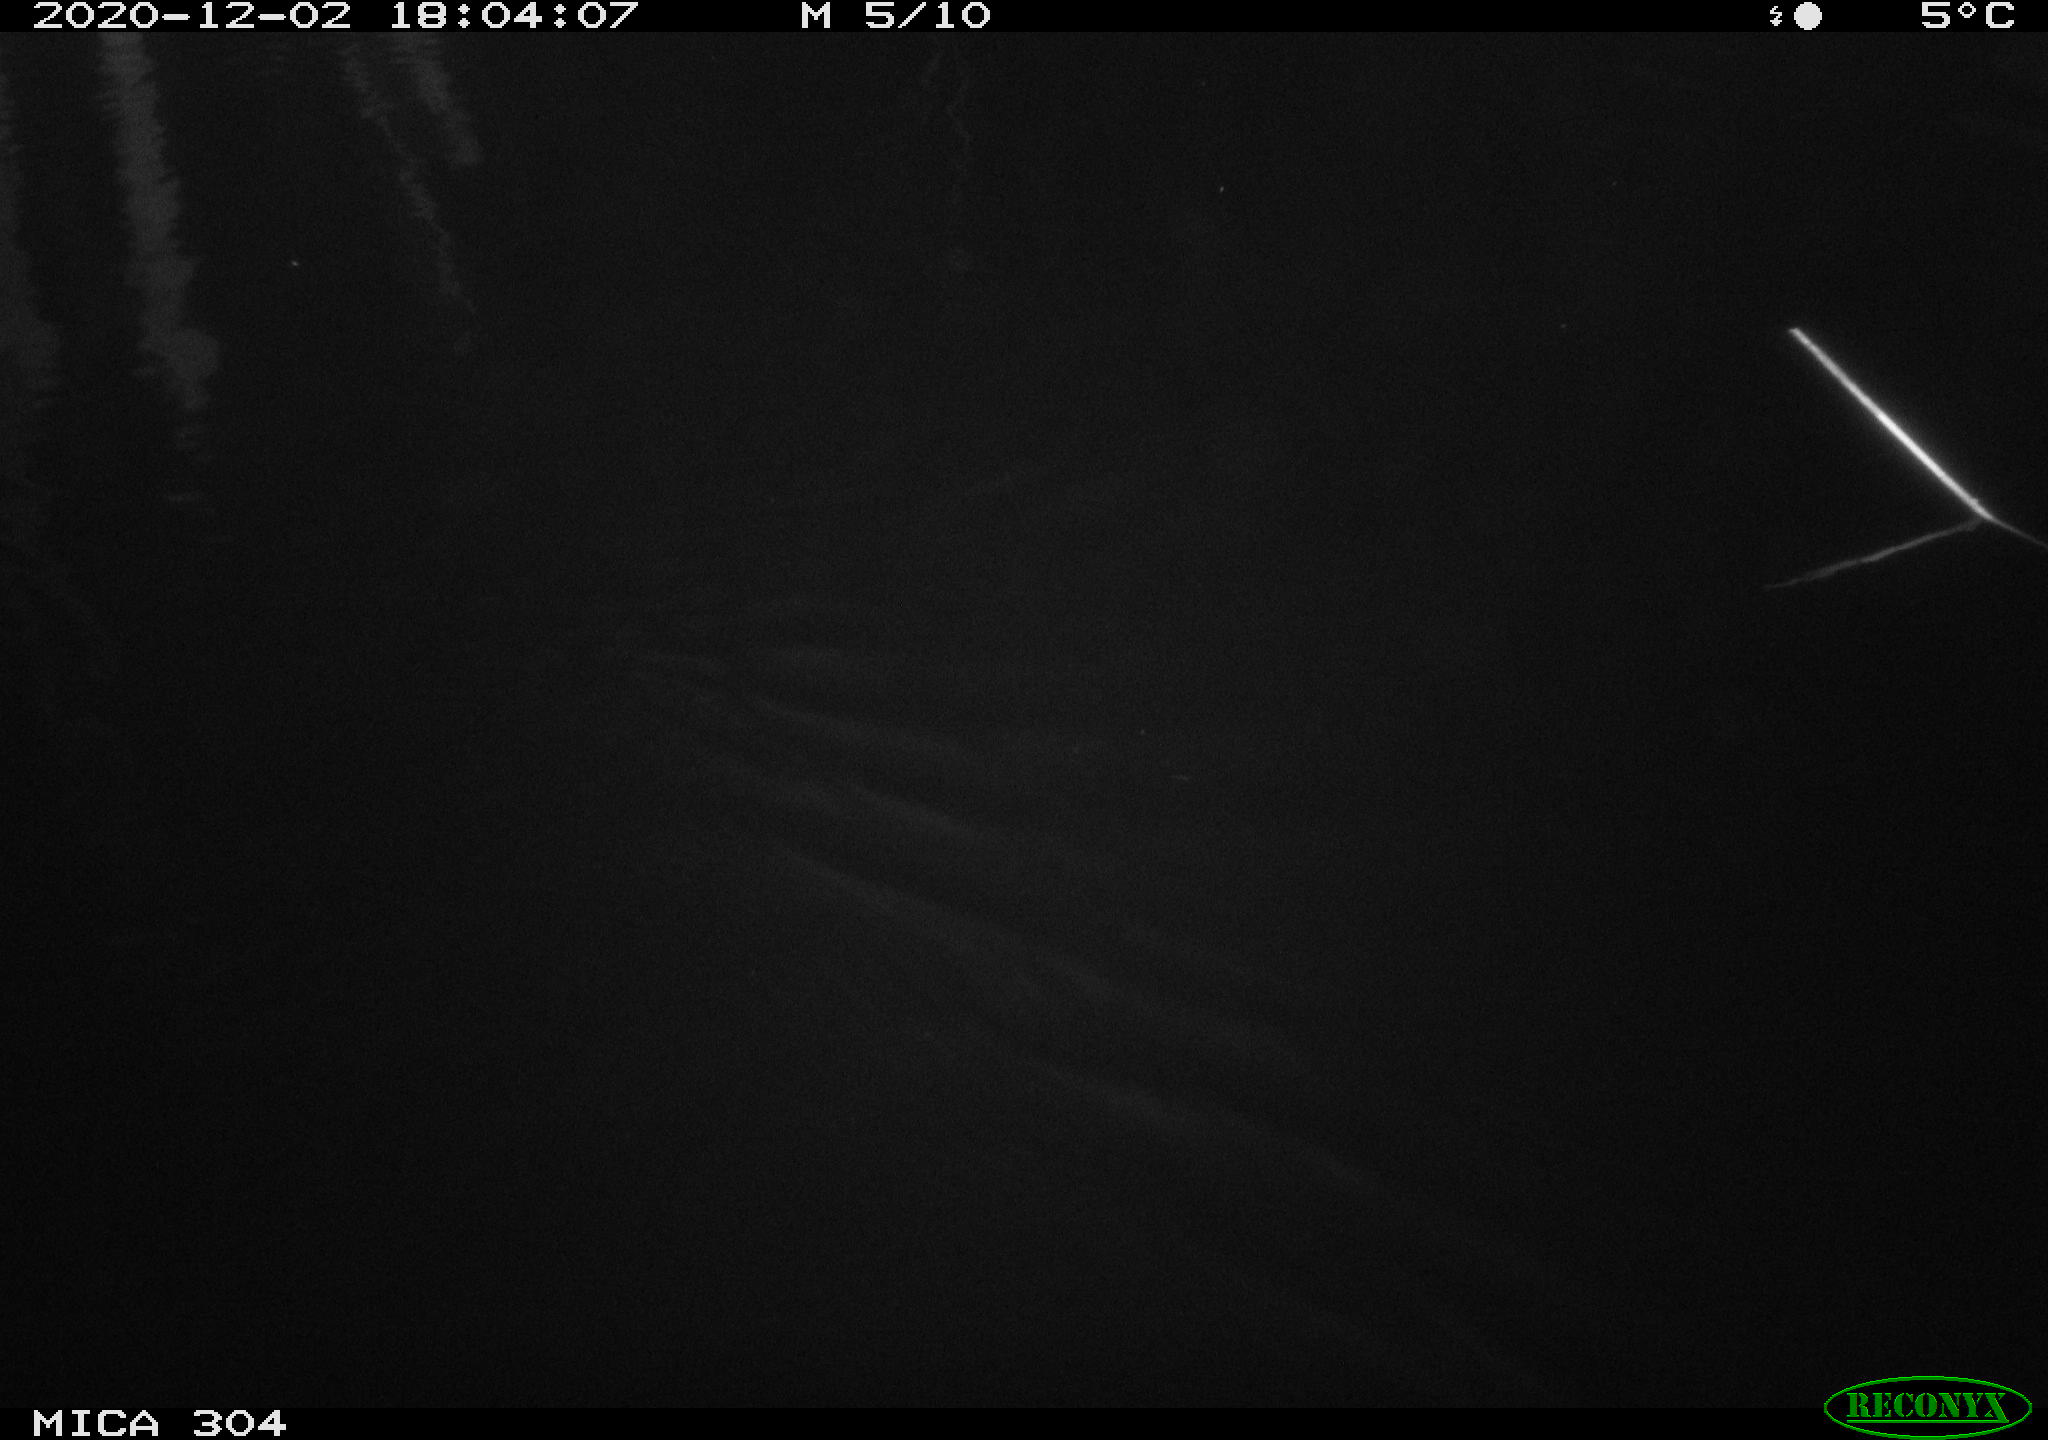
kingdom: Animalia
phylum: Chordata
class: Mammalia
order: Rodentia
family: Muridae
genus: Rattus
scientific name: Rattus norvegicus
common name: Brown rat
